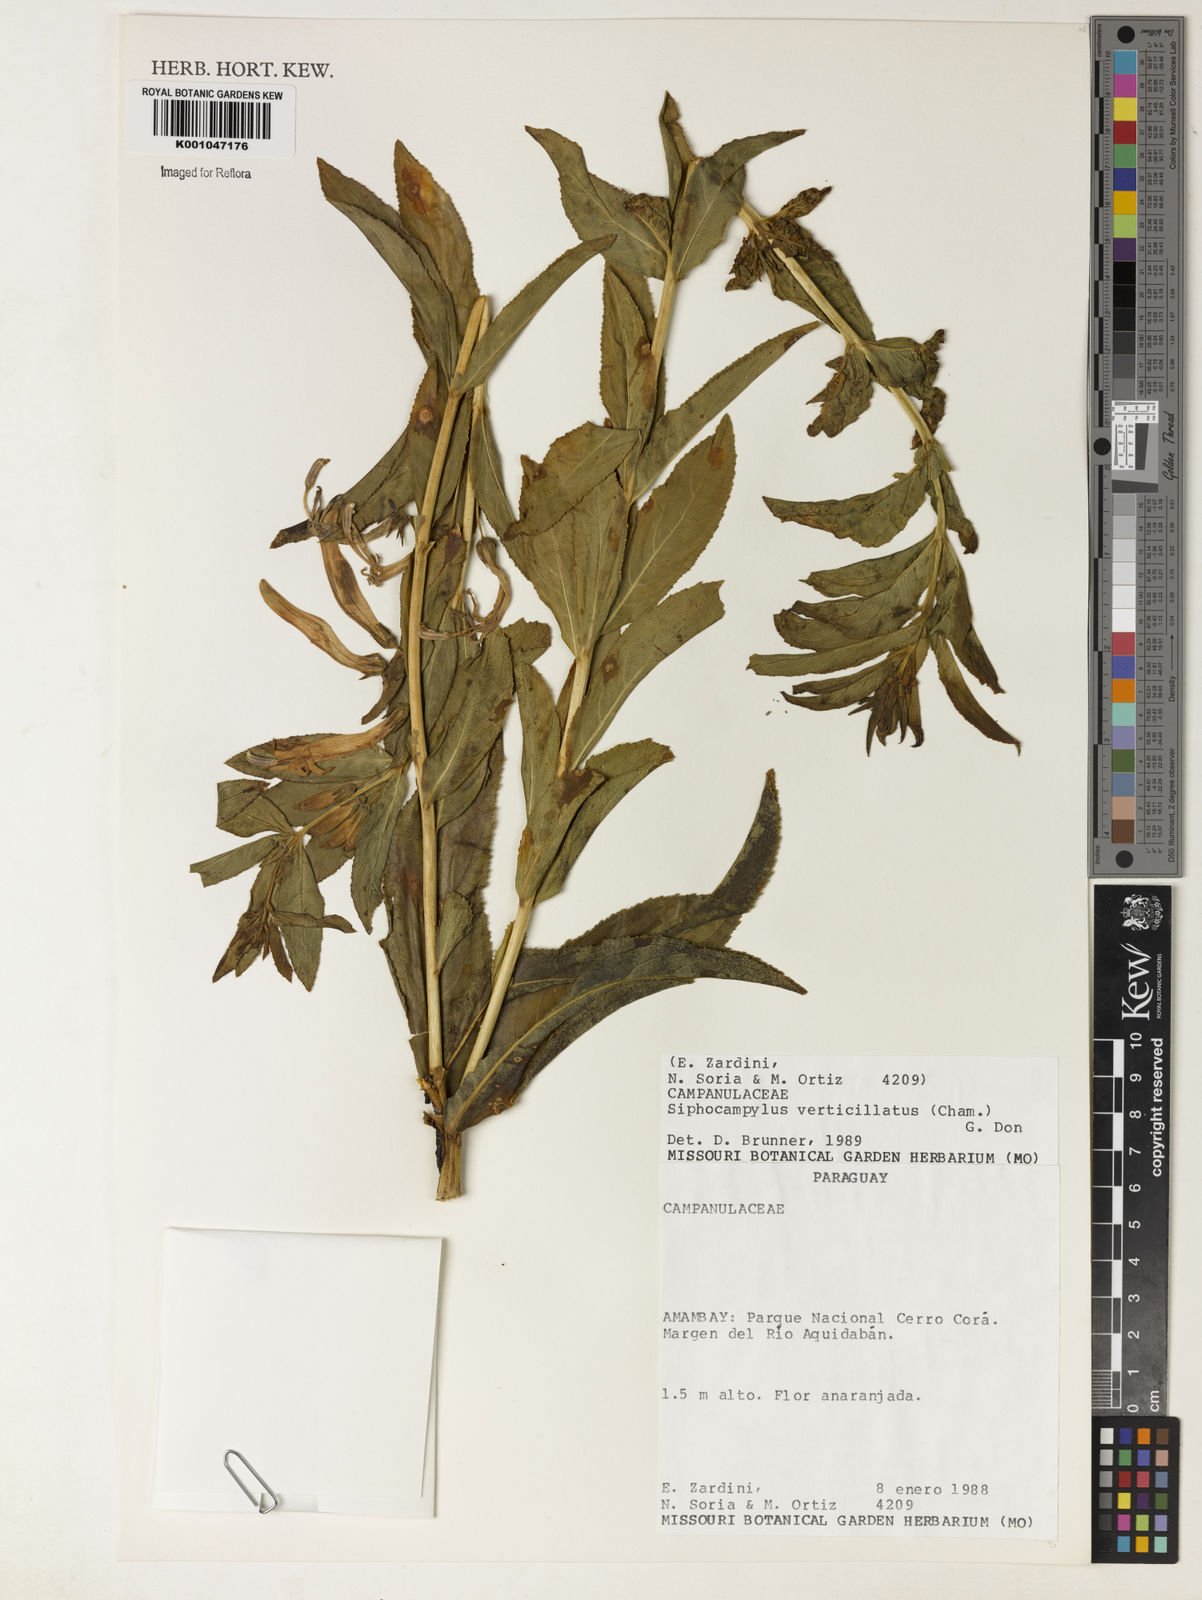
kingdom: Plantae
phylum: Tracheophyta
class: Magnoliopsida
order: Asterales
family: Campanulaceae
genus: Siphocampylus
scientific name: Siphocampylus verticillatus
